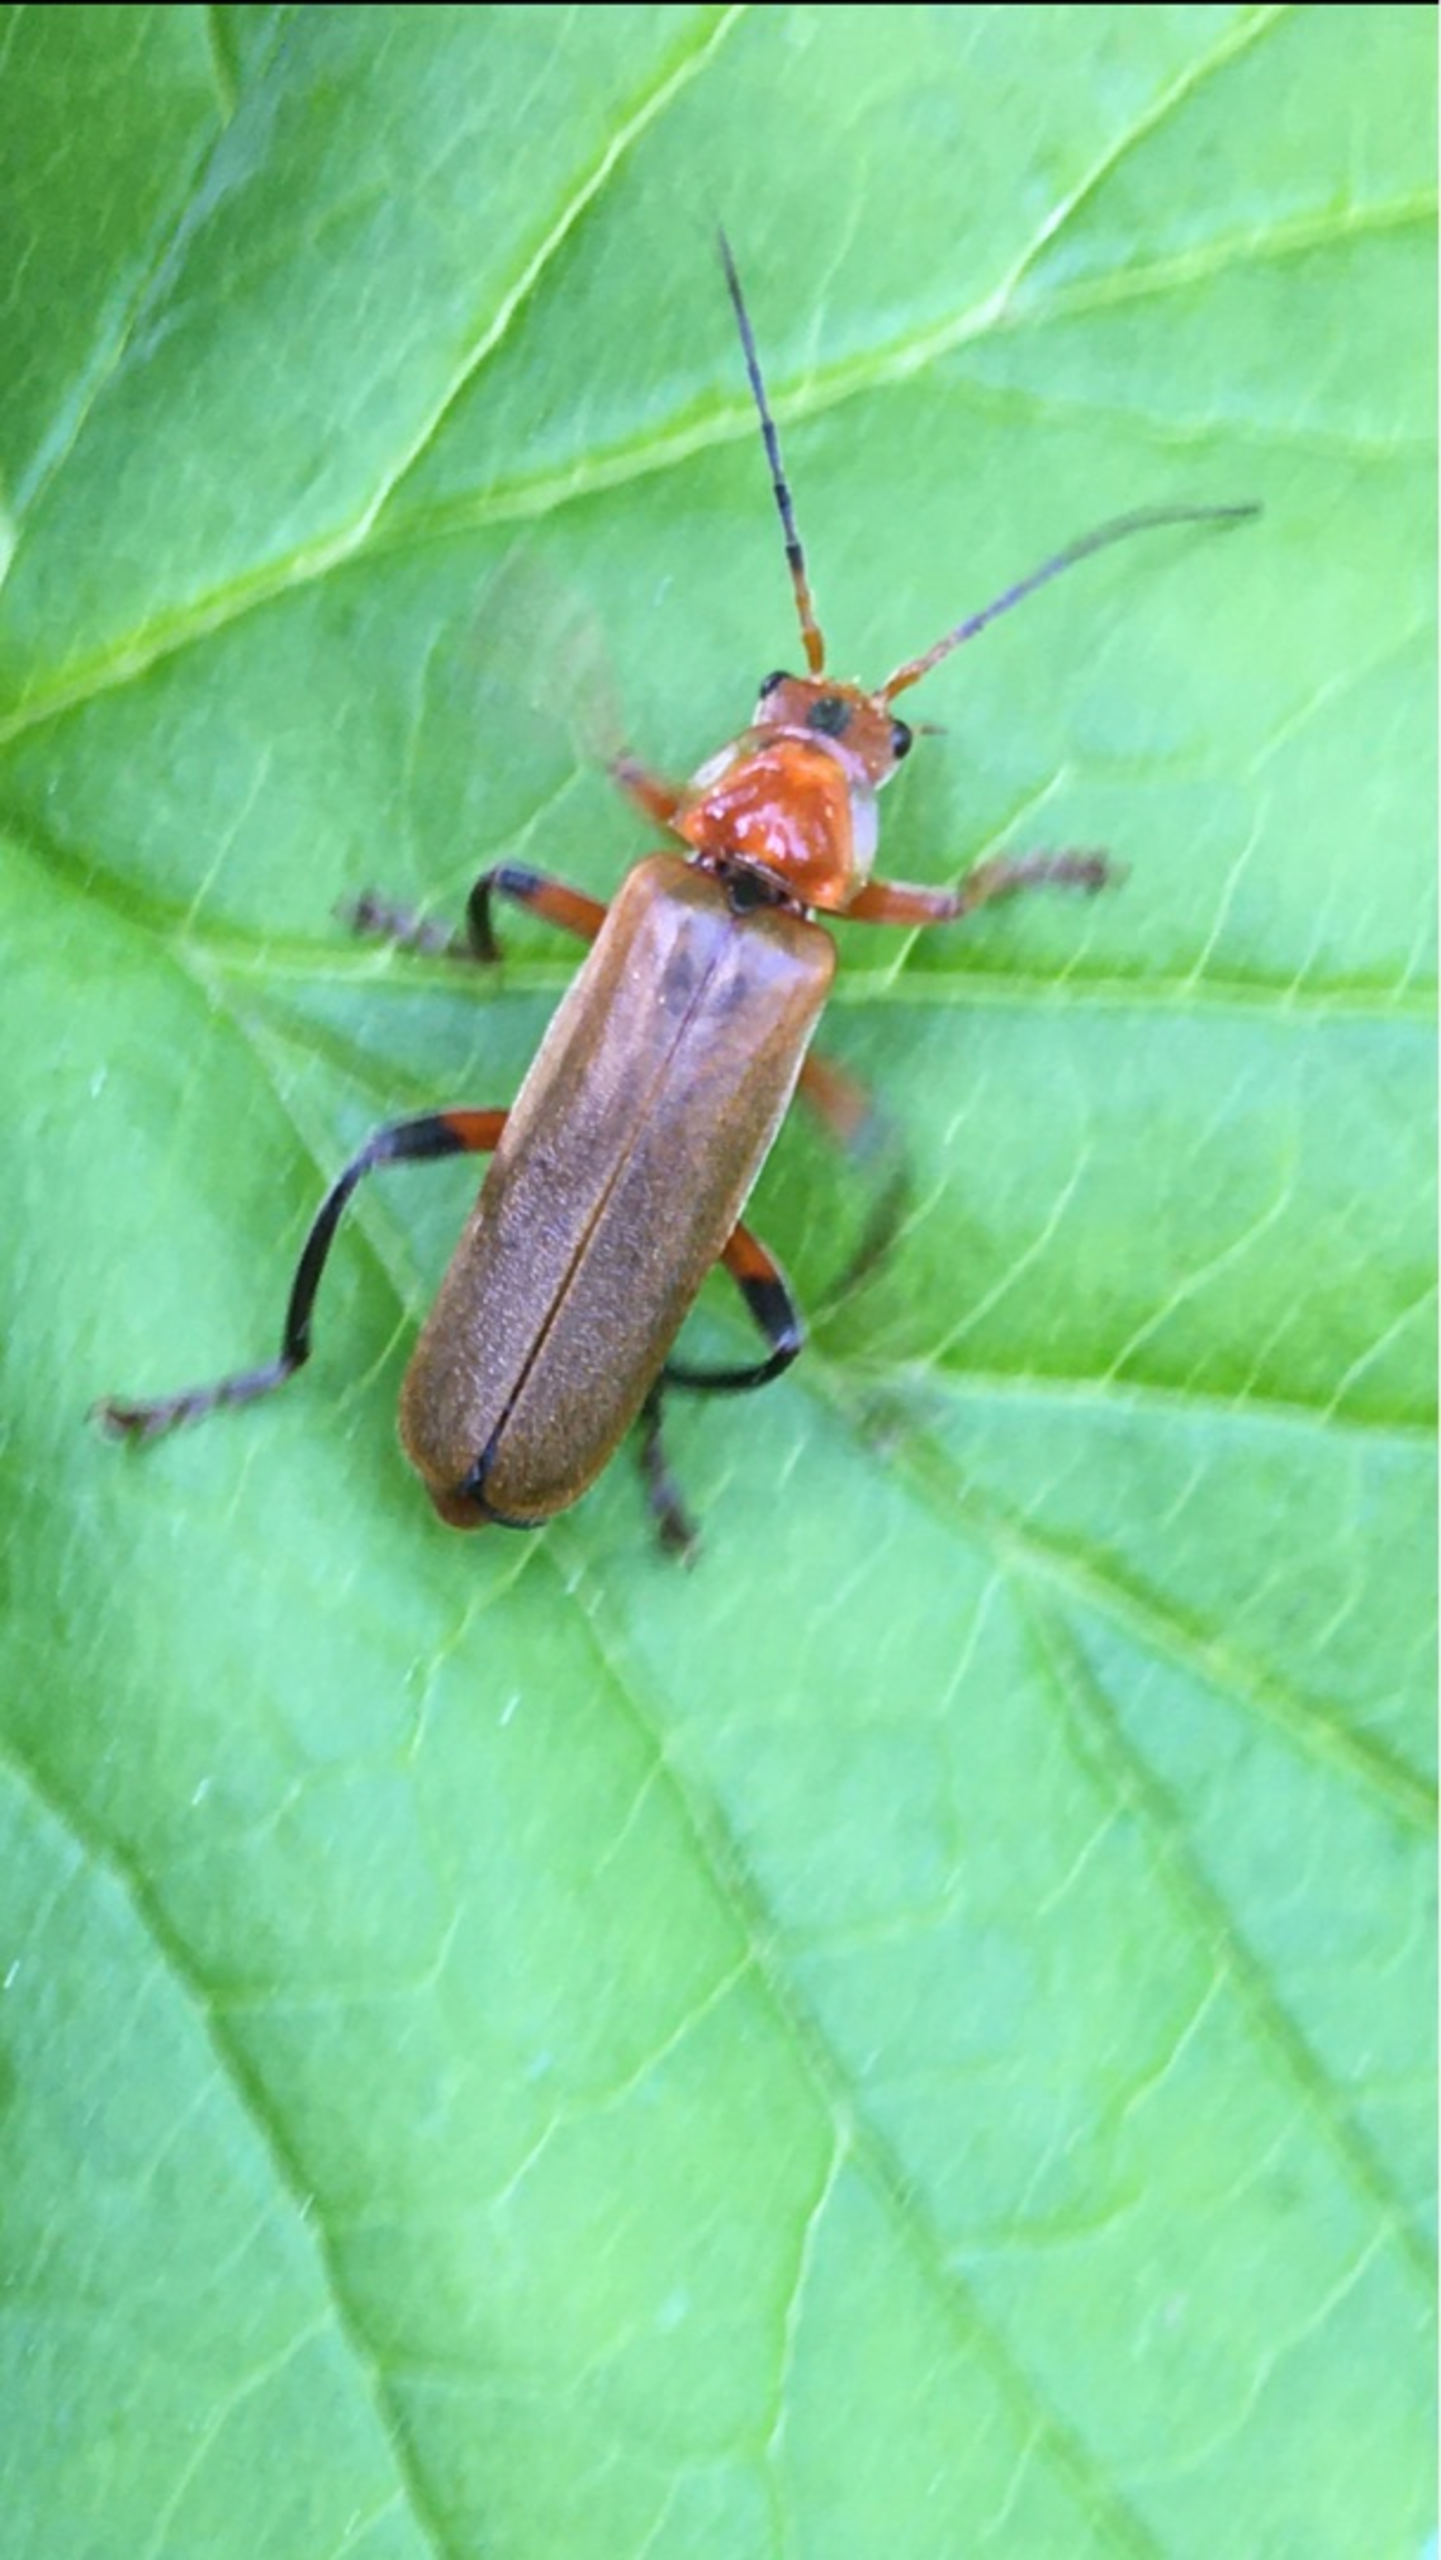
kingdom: Animalia
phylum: Arthropoda
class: Insecta
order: Coleoptera
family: Cantharidae
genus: Cantharis
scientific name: Cantharis livida
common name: Gul blødvinge
